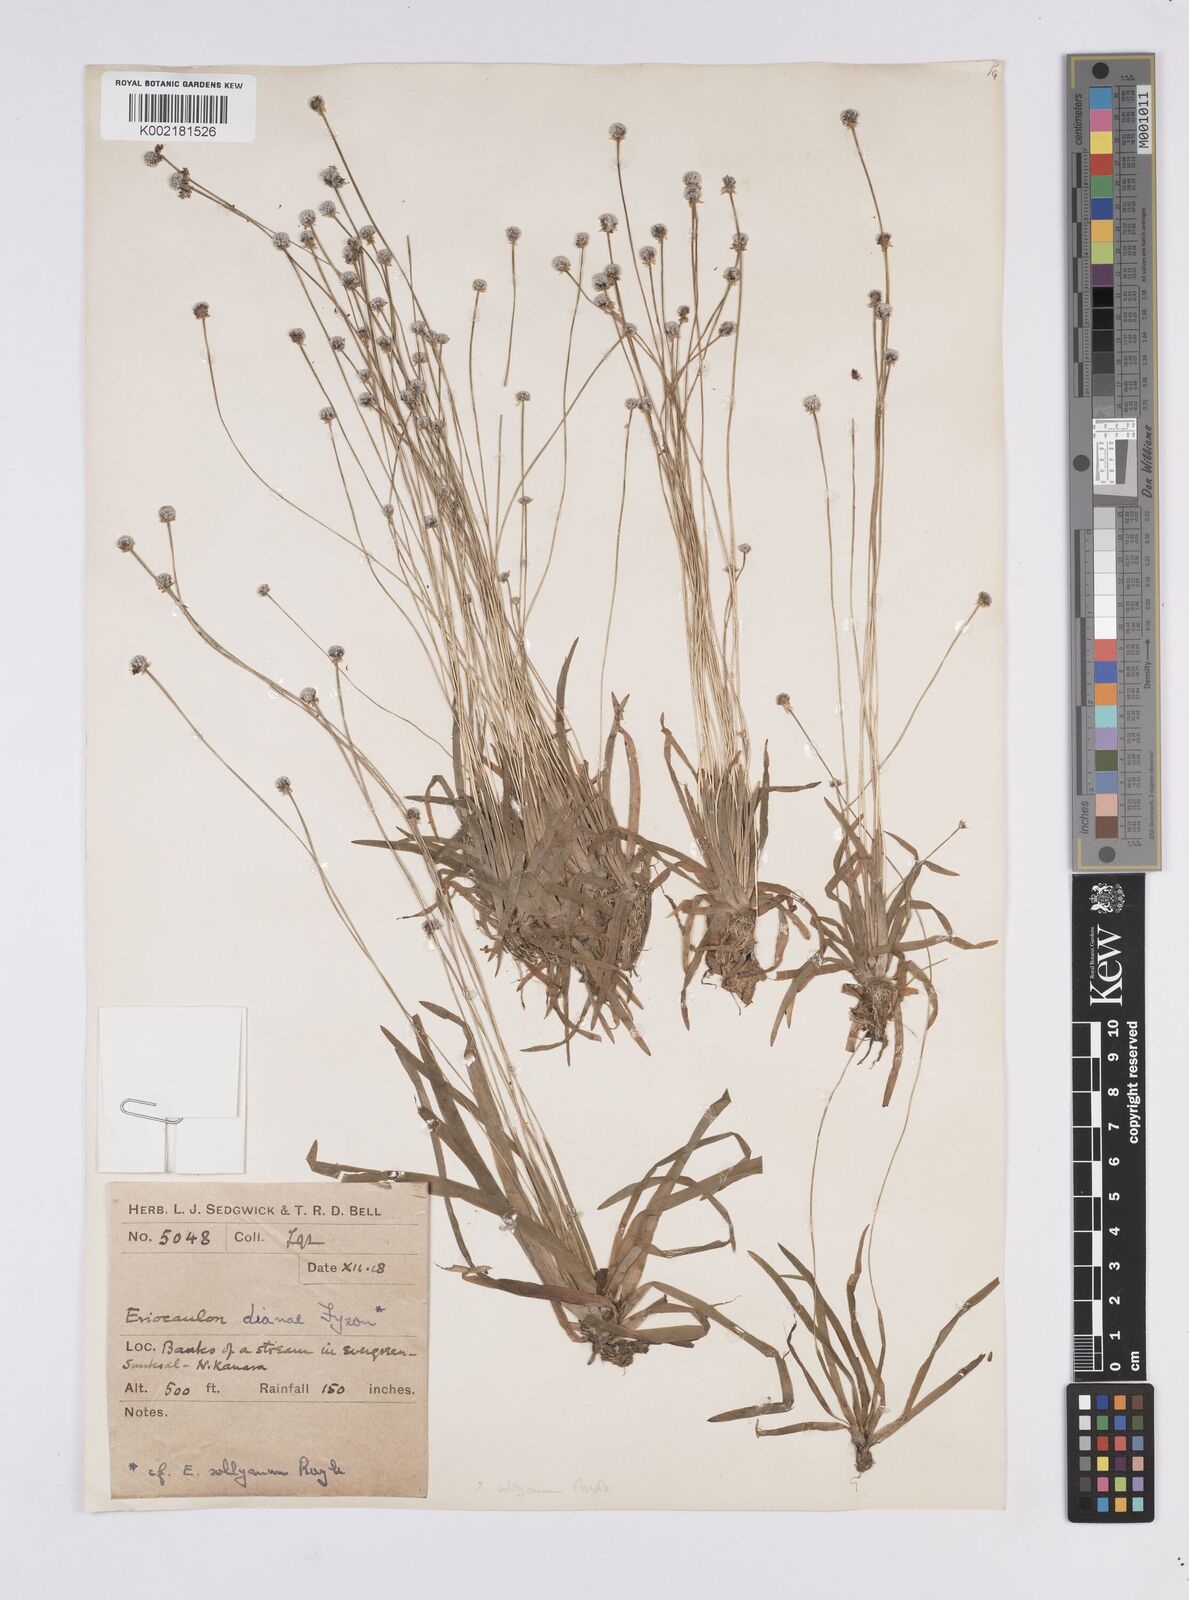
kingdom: Plantae
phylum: Tracheophyta
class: Liliopsida
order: Poales
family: Eriocaulaceae
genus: Eriocaulon
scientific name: Eriocaulon heterolepis
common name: Buttonhead pipewort
